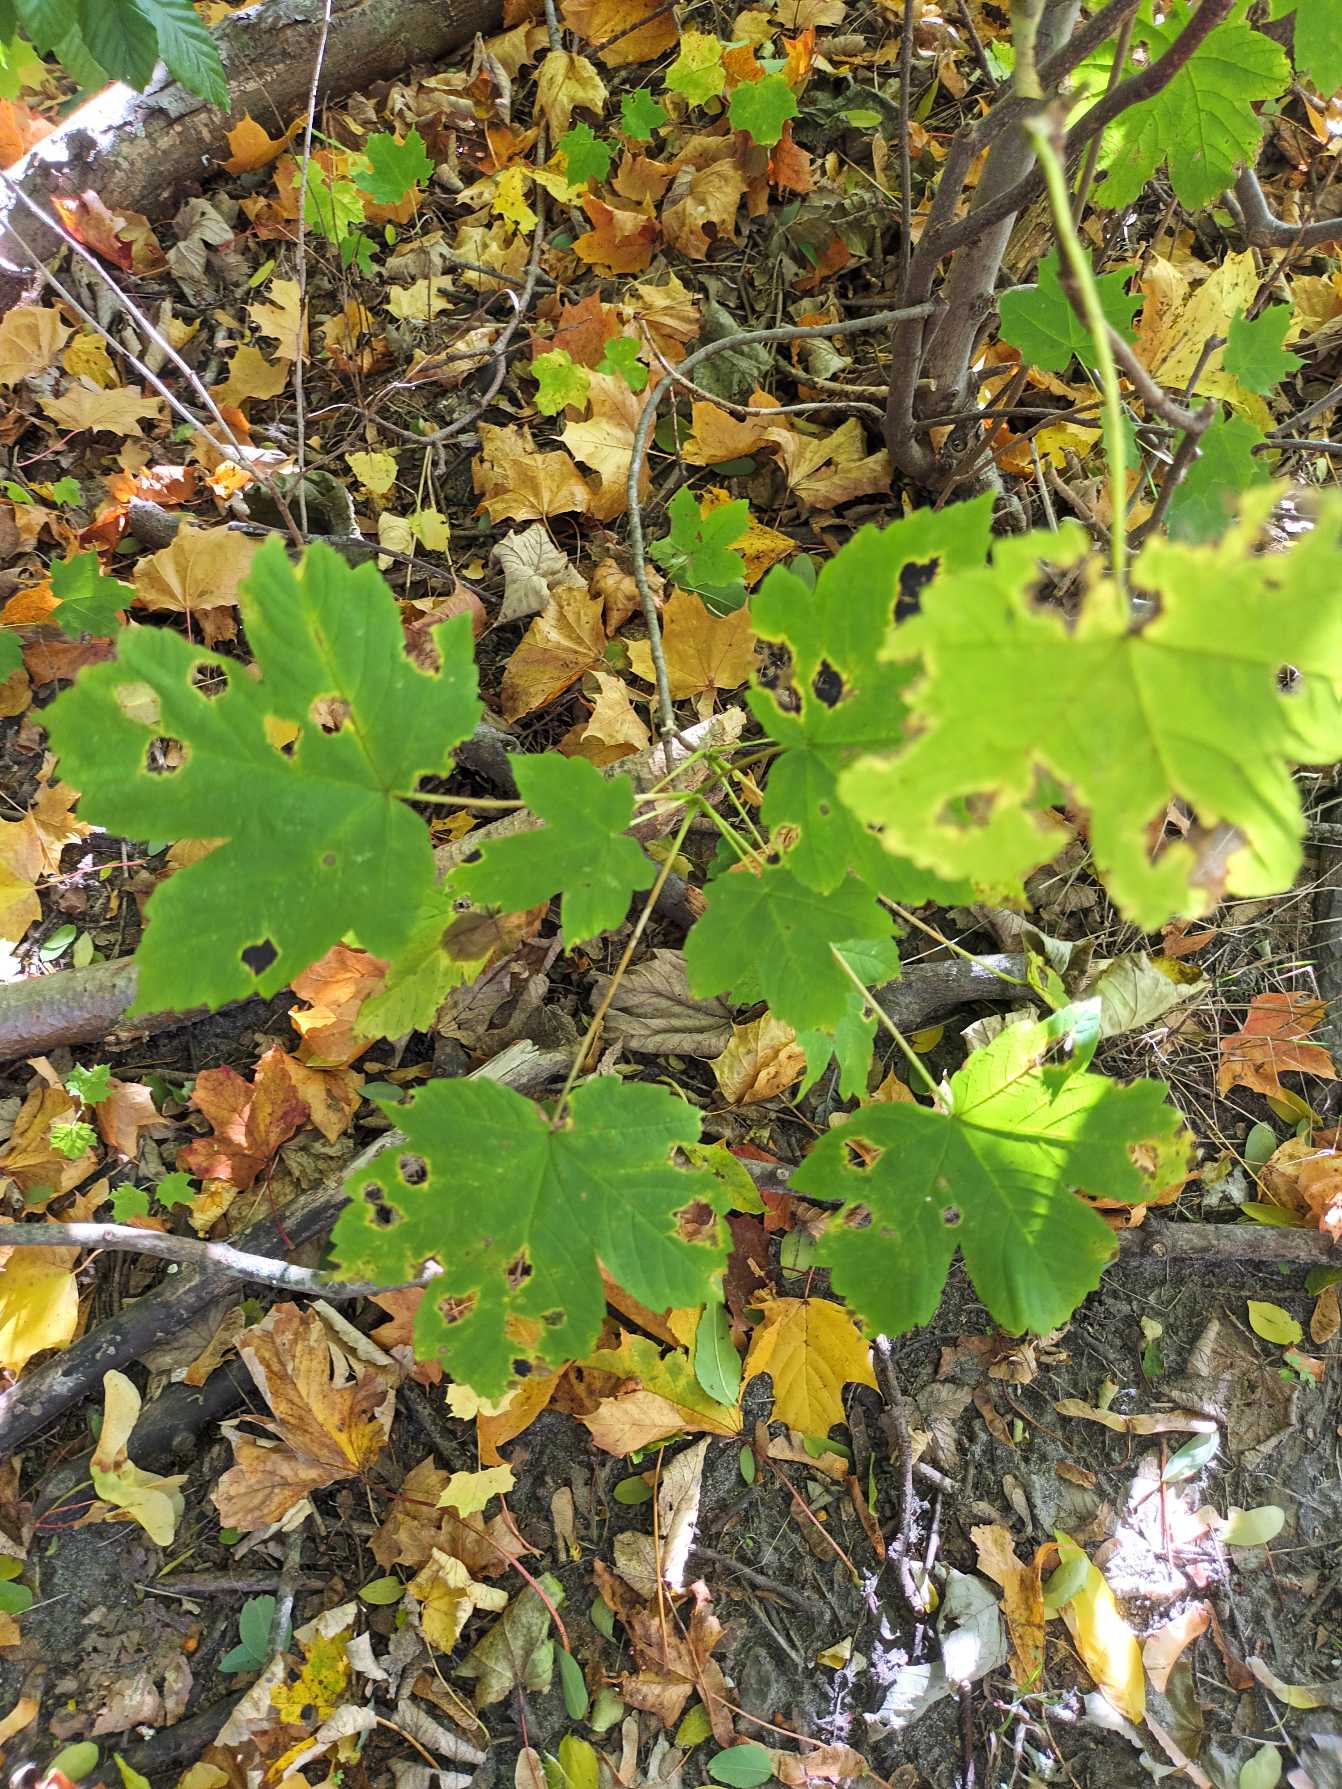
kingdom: Plantae
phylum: Tracheophyta
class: Magnoliopsida
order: Sapindales
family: Sapindaceae
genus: Acer
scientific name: Acer pseudoplatanus
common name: Ahorn
